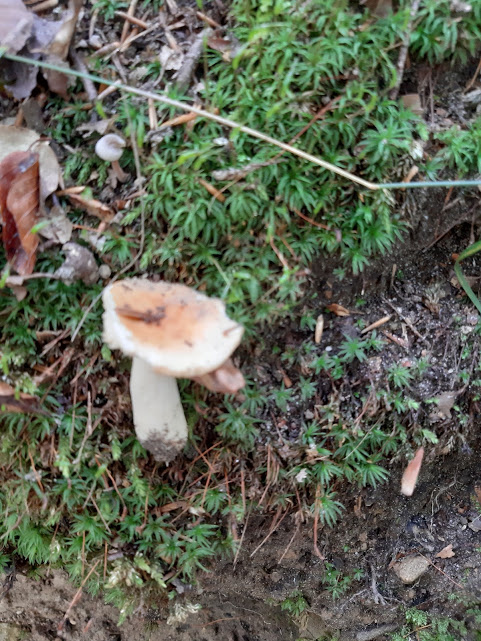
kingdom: Fungi
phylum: Basidiomycota
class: Agaricomycetes
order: Russulales
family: Russulaceae
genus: Russula
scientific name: Russula ochroleuca
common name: okkergul skørhat
